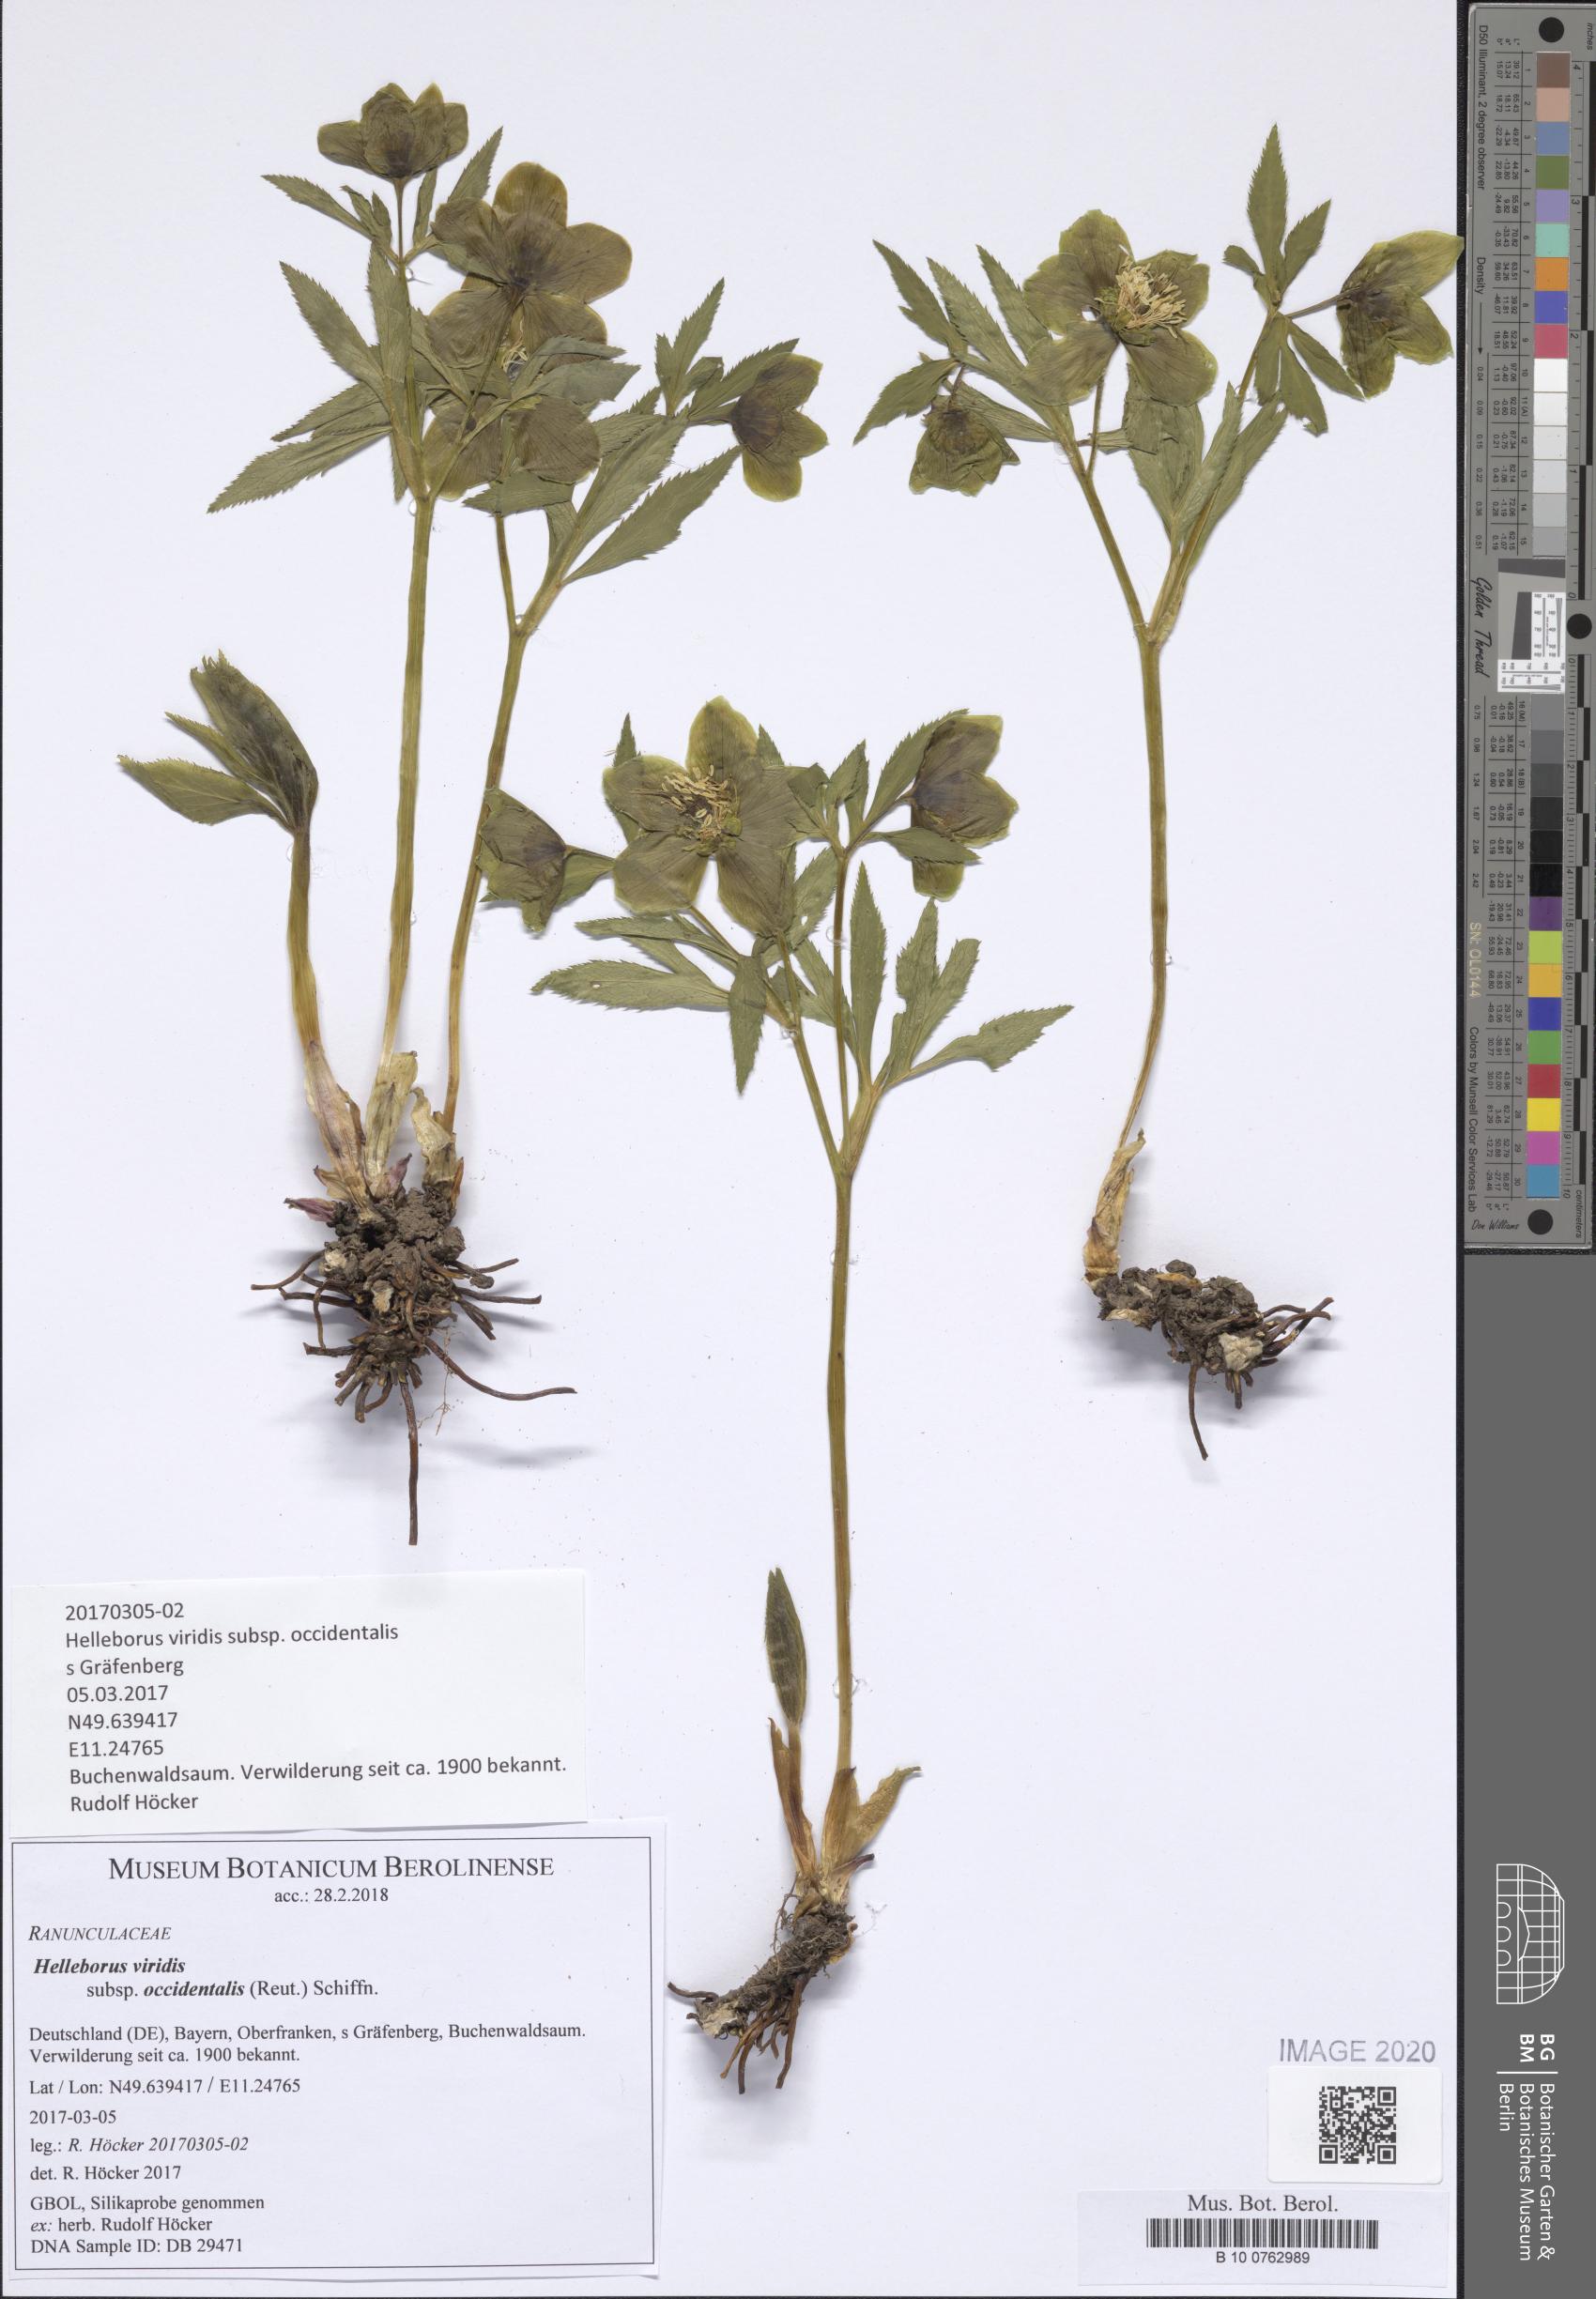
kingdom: Plantae
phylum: Tracheophyta
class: Magnoliopsida
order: Ranunculales
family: Ranunculaceae
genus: Helleborus
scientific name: Helleborus viridis
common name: Green hellebore
